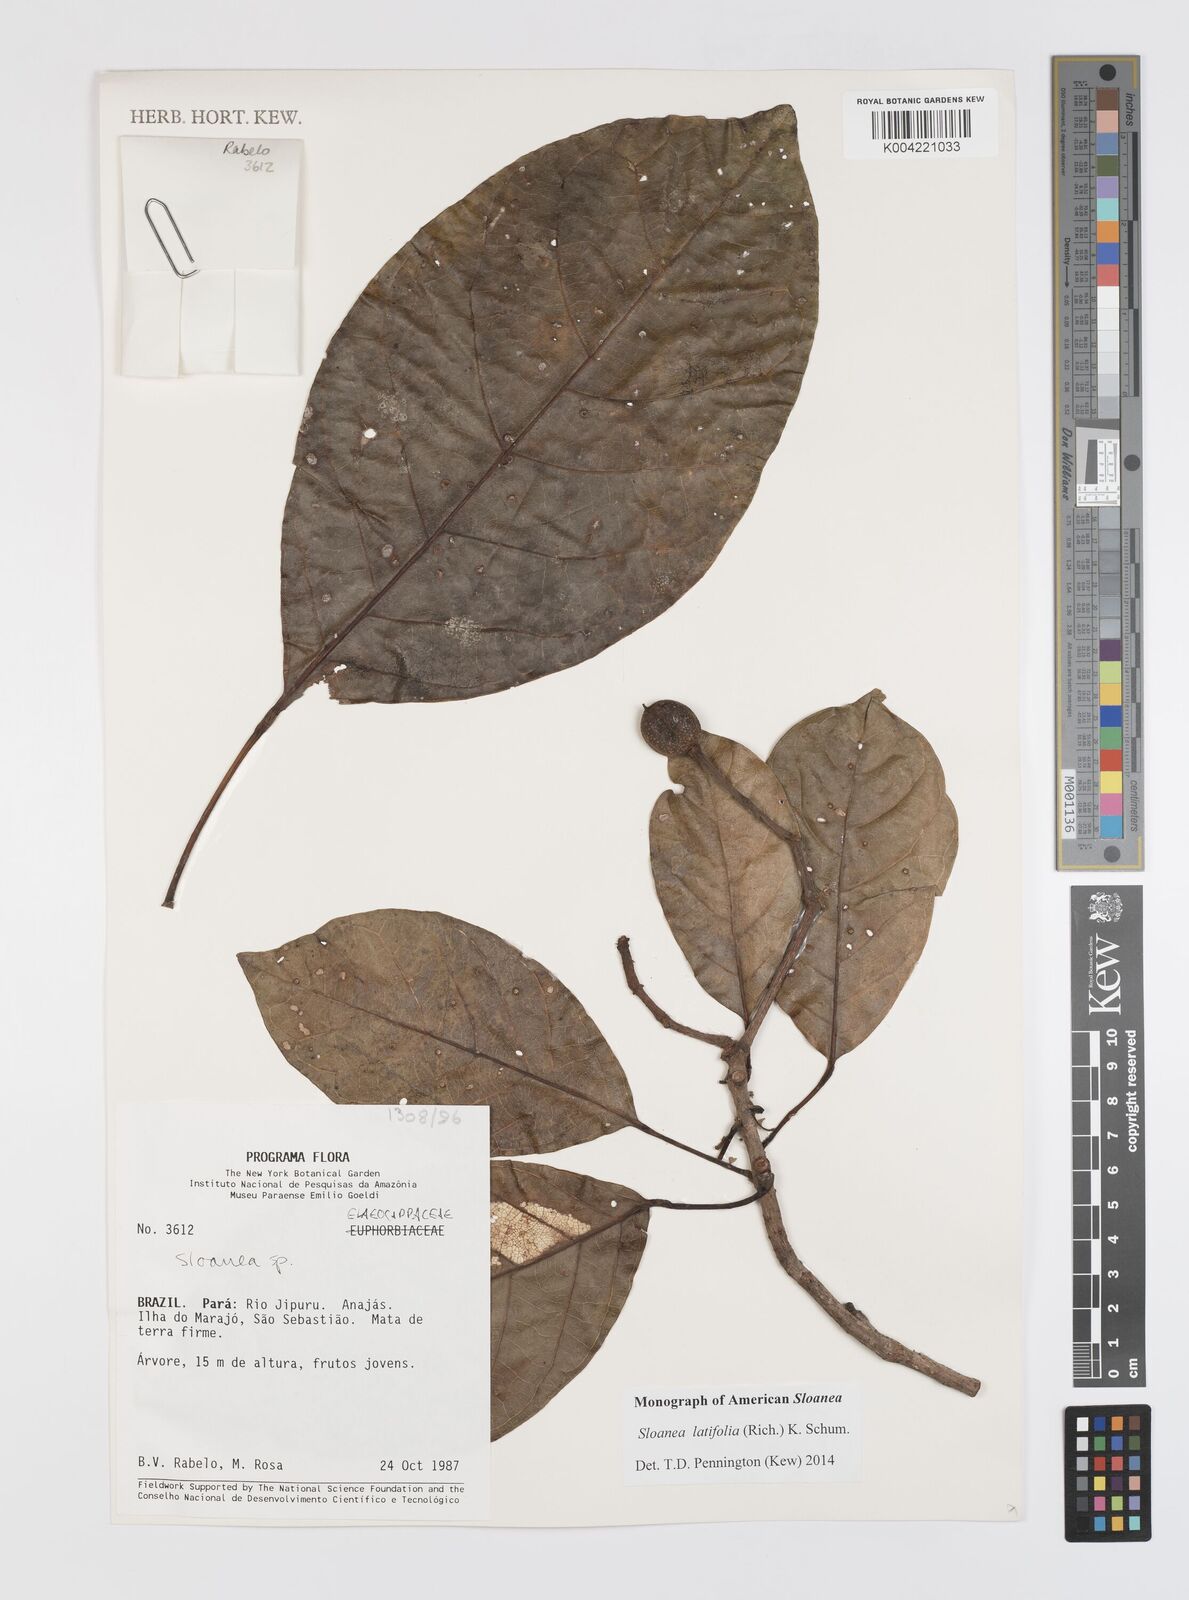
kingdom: Plantae
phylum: Tracheophyta
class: Magnoliopsida
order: Oxalidales
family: Elaeocarpaceae
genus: Sloanea
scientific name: Sloanea latifolia
